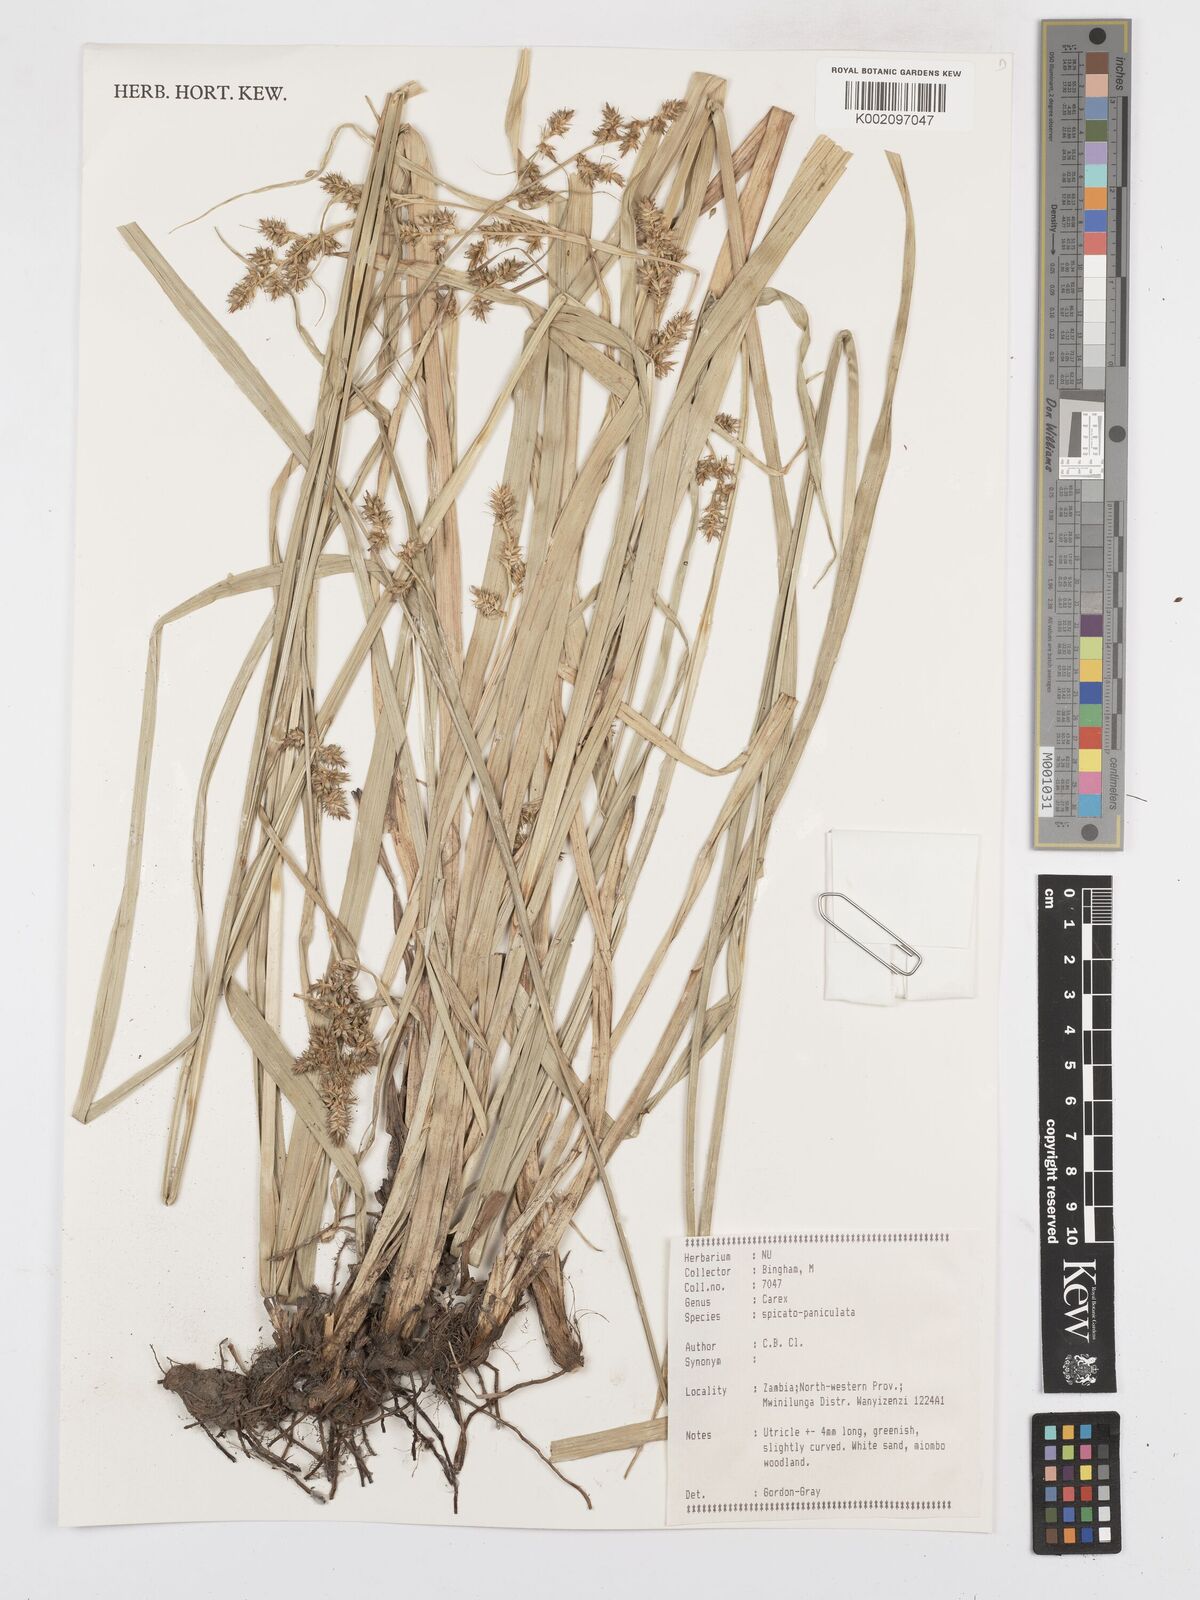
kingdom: Plantae
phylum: Tracheophyta
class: Liliopsida
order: Poales
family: Cyperaceae
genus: Carex
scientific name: Carex spicatopaniculata
